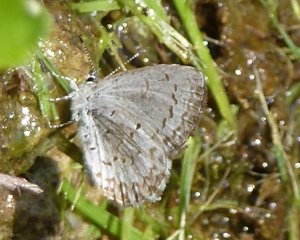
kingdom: Animalia
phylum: Arthropoda
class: Insecta
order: Lepidoptera
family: Lycaenidae
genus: Celastrina
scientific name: Celastrina lucia
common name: Northern Spring Azure
